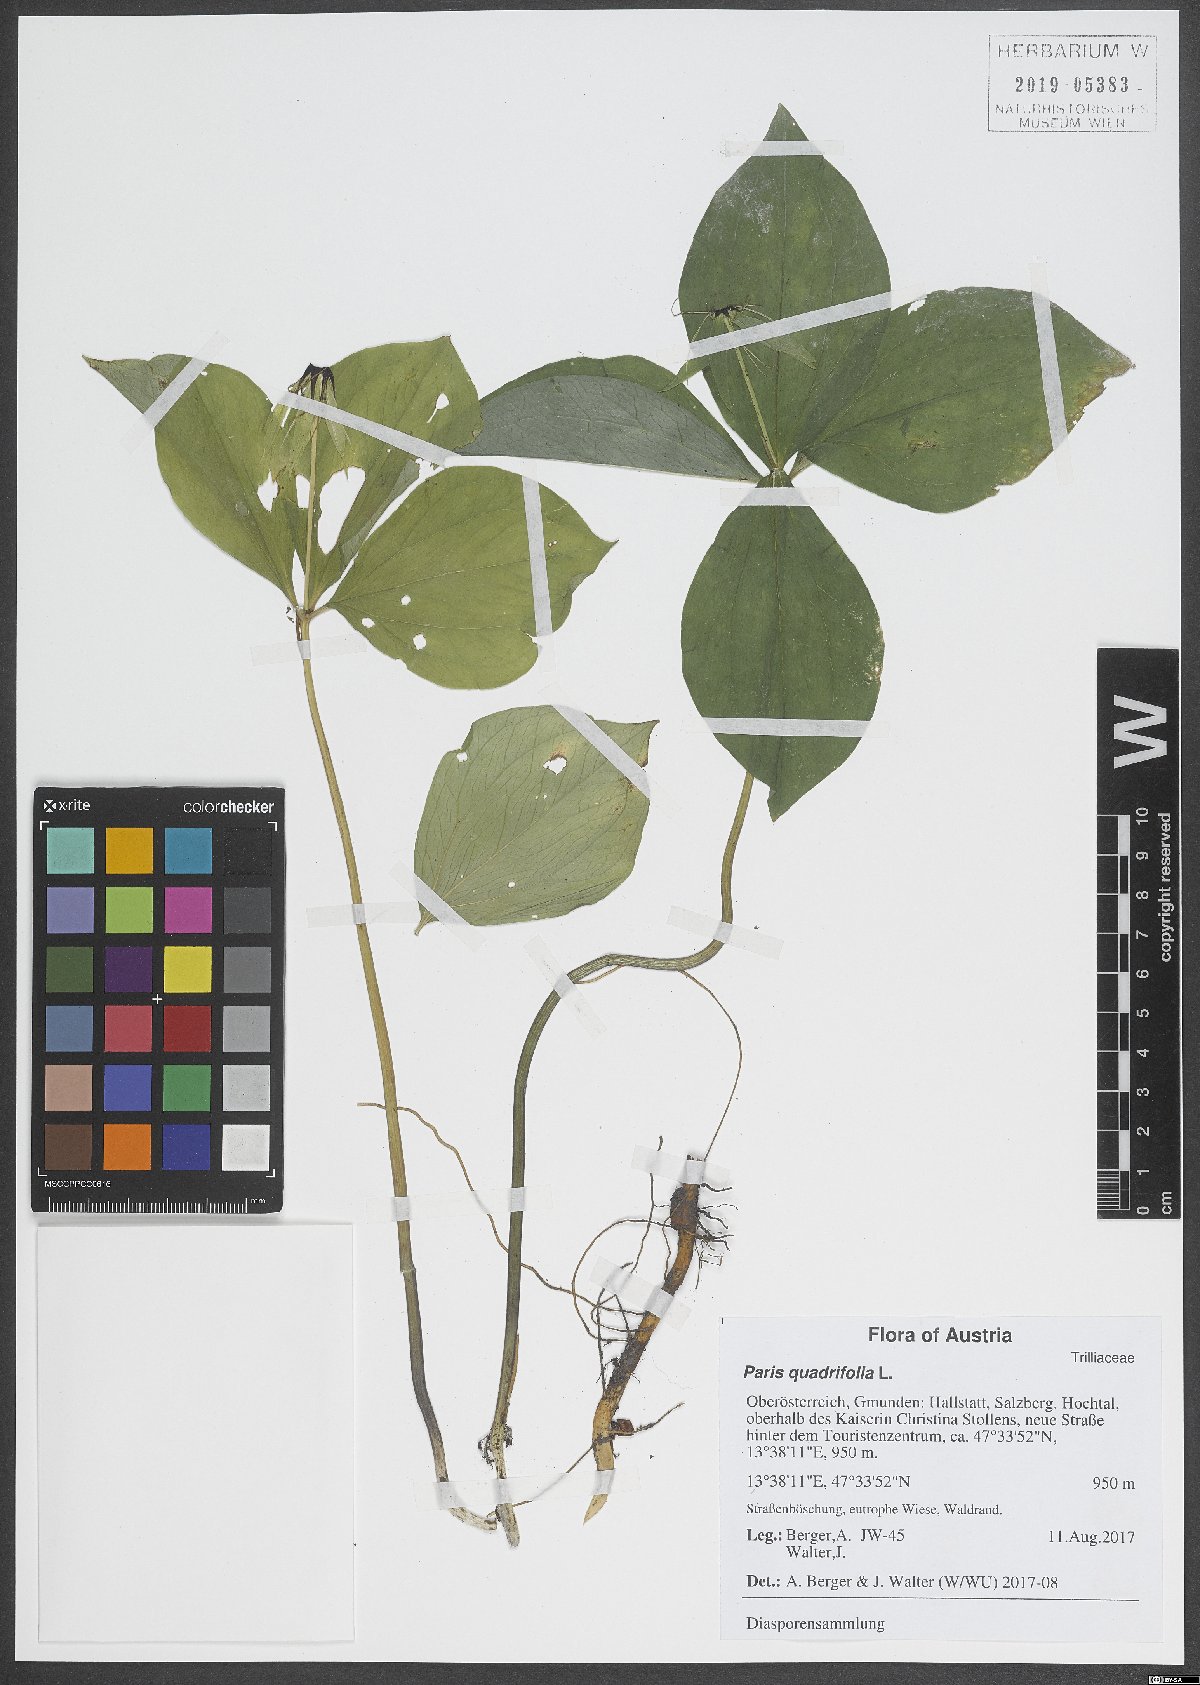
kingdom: Plantae
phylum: Tracheophyta
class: Liliopsida
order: Liliales
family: Melanthiaceae
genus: Paris
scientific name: Paris quadrifolia
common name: Herb-paris
